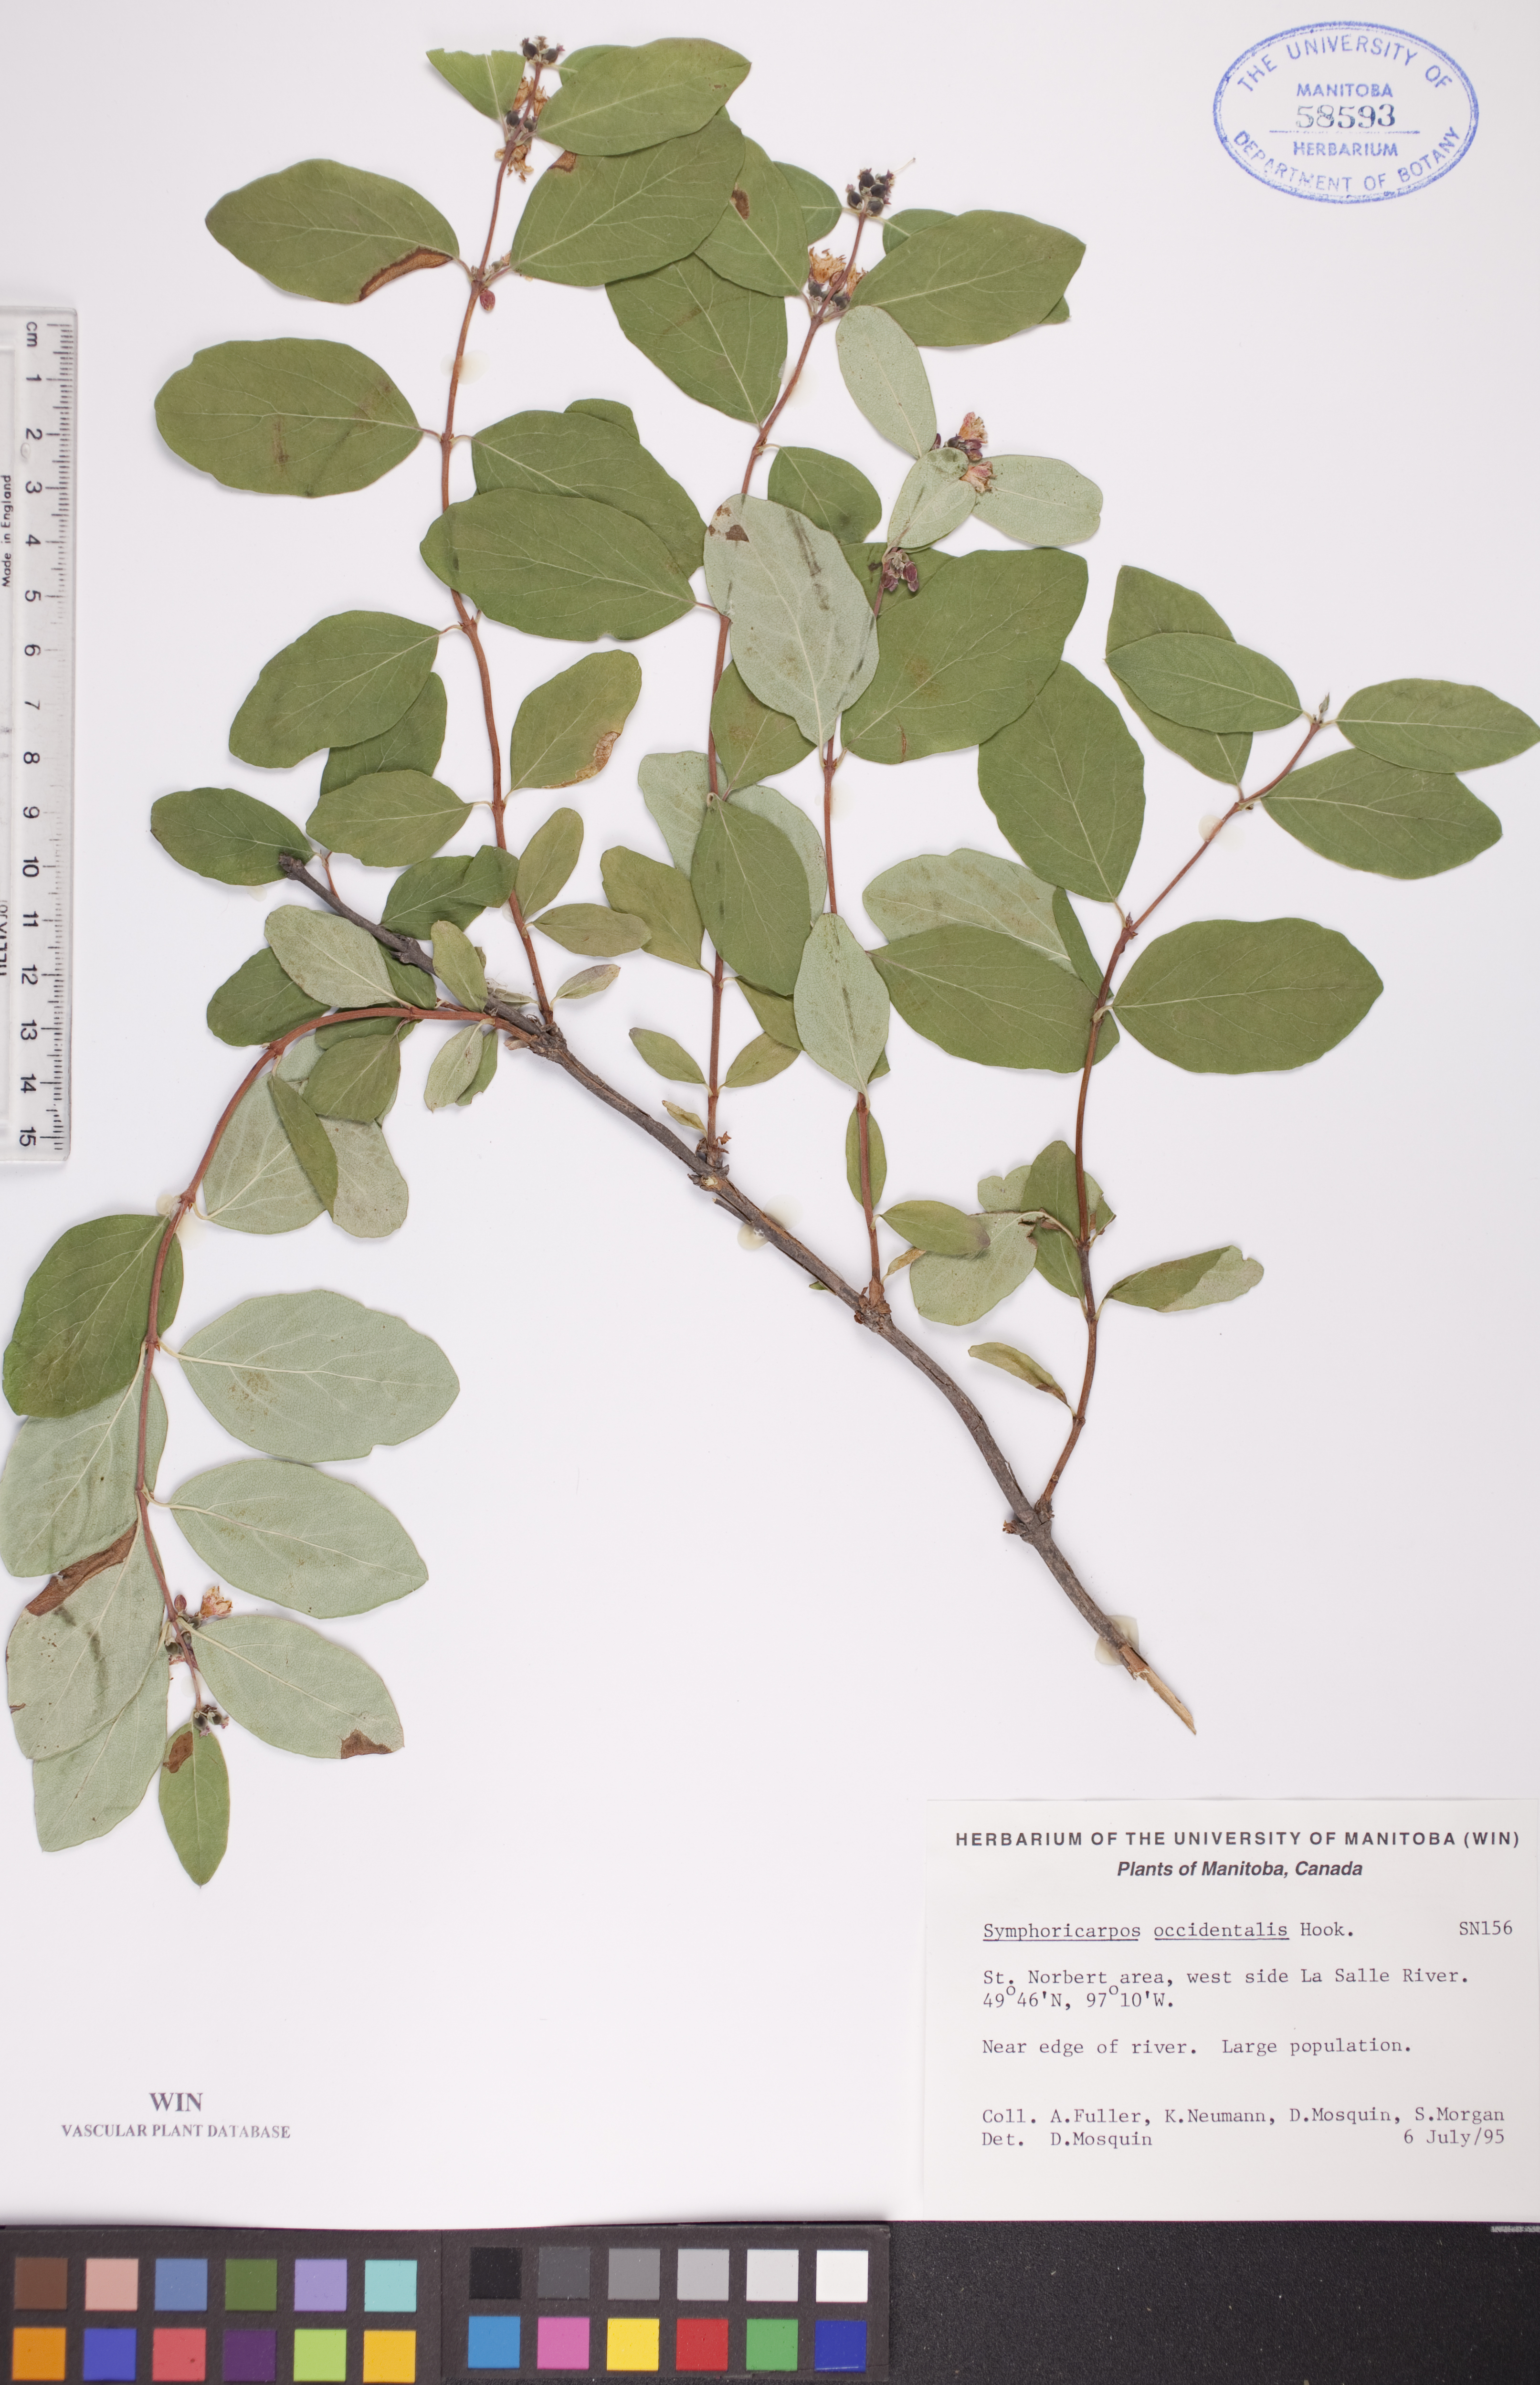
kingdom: Plantae
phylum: Tracheophyta
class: Magnoliopsida
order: Dipsacales
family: Caprifoliaceae
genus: Symphoricarpos
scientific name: Symphoricarpos occidentalis
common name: Wolfberry
